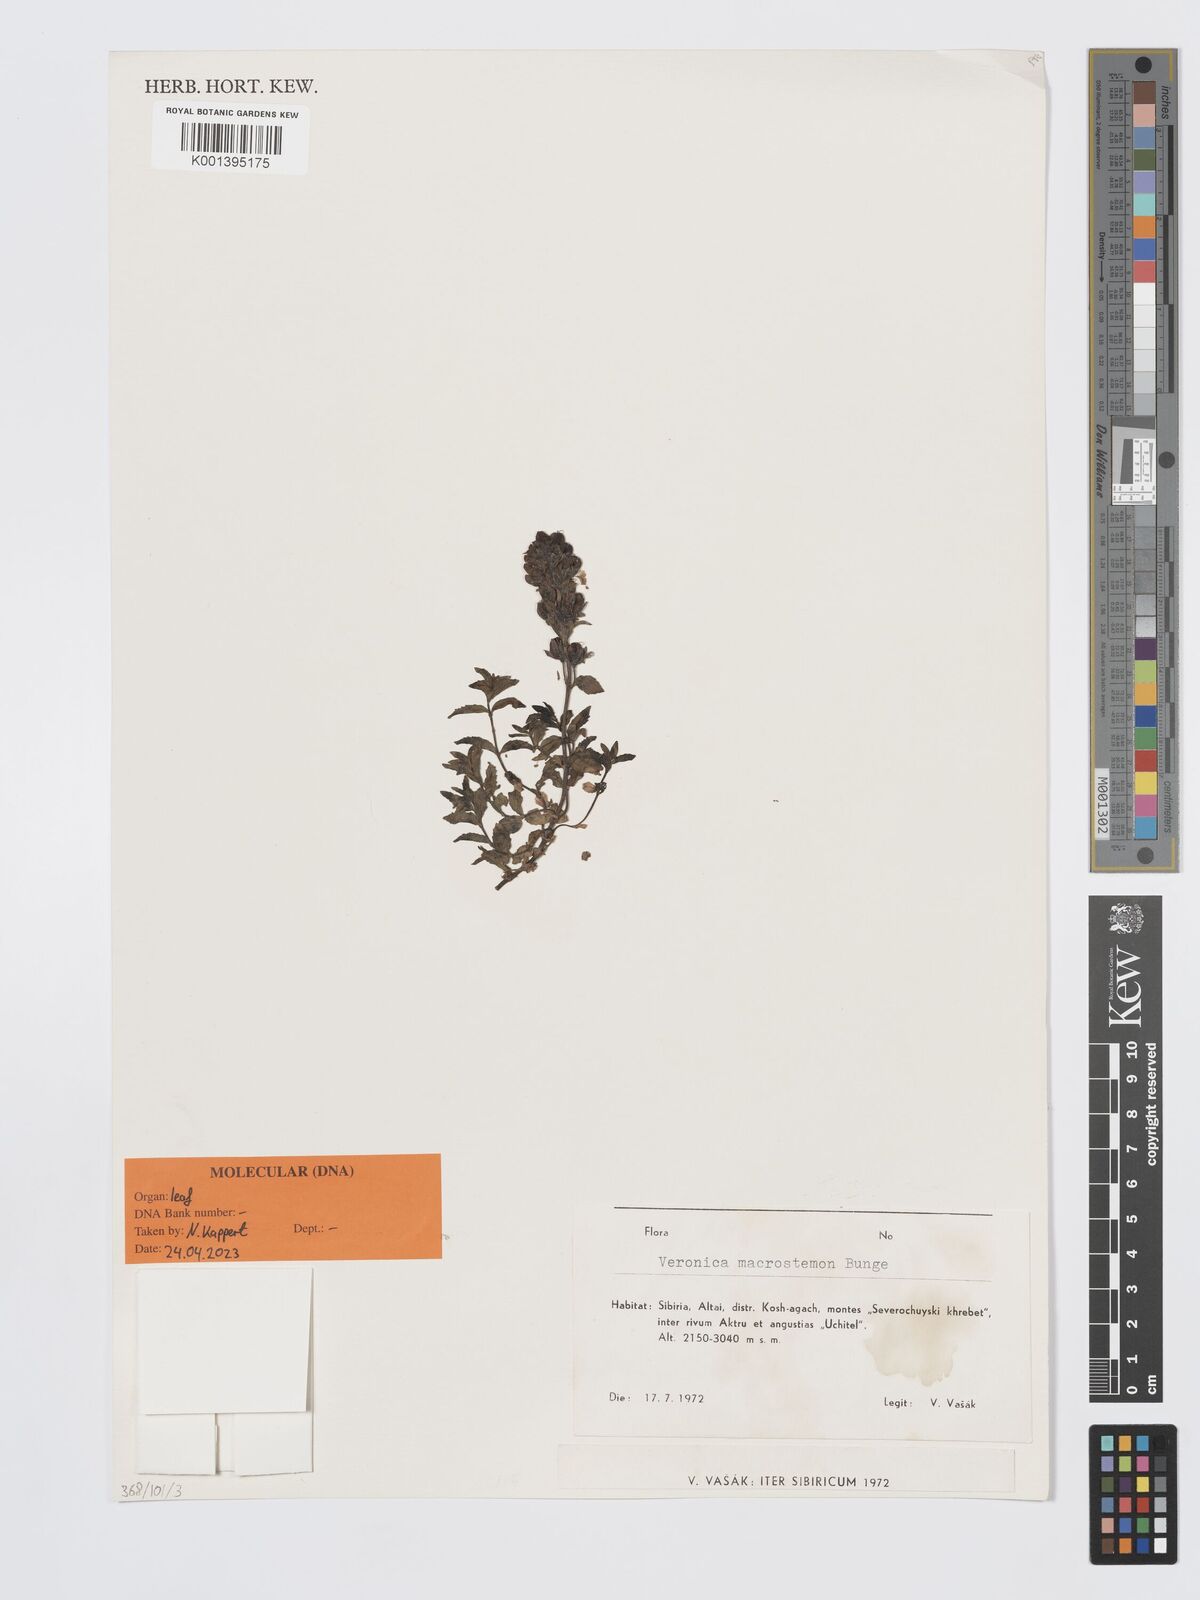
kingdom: Plantae
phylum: Tracheophyta
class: Magnoliopsida
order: Lamiales
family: Plantaginaceae
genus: Veronica
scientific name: Veronica macrostemon
